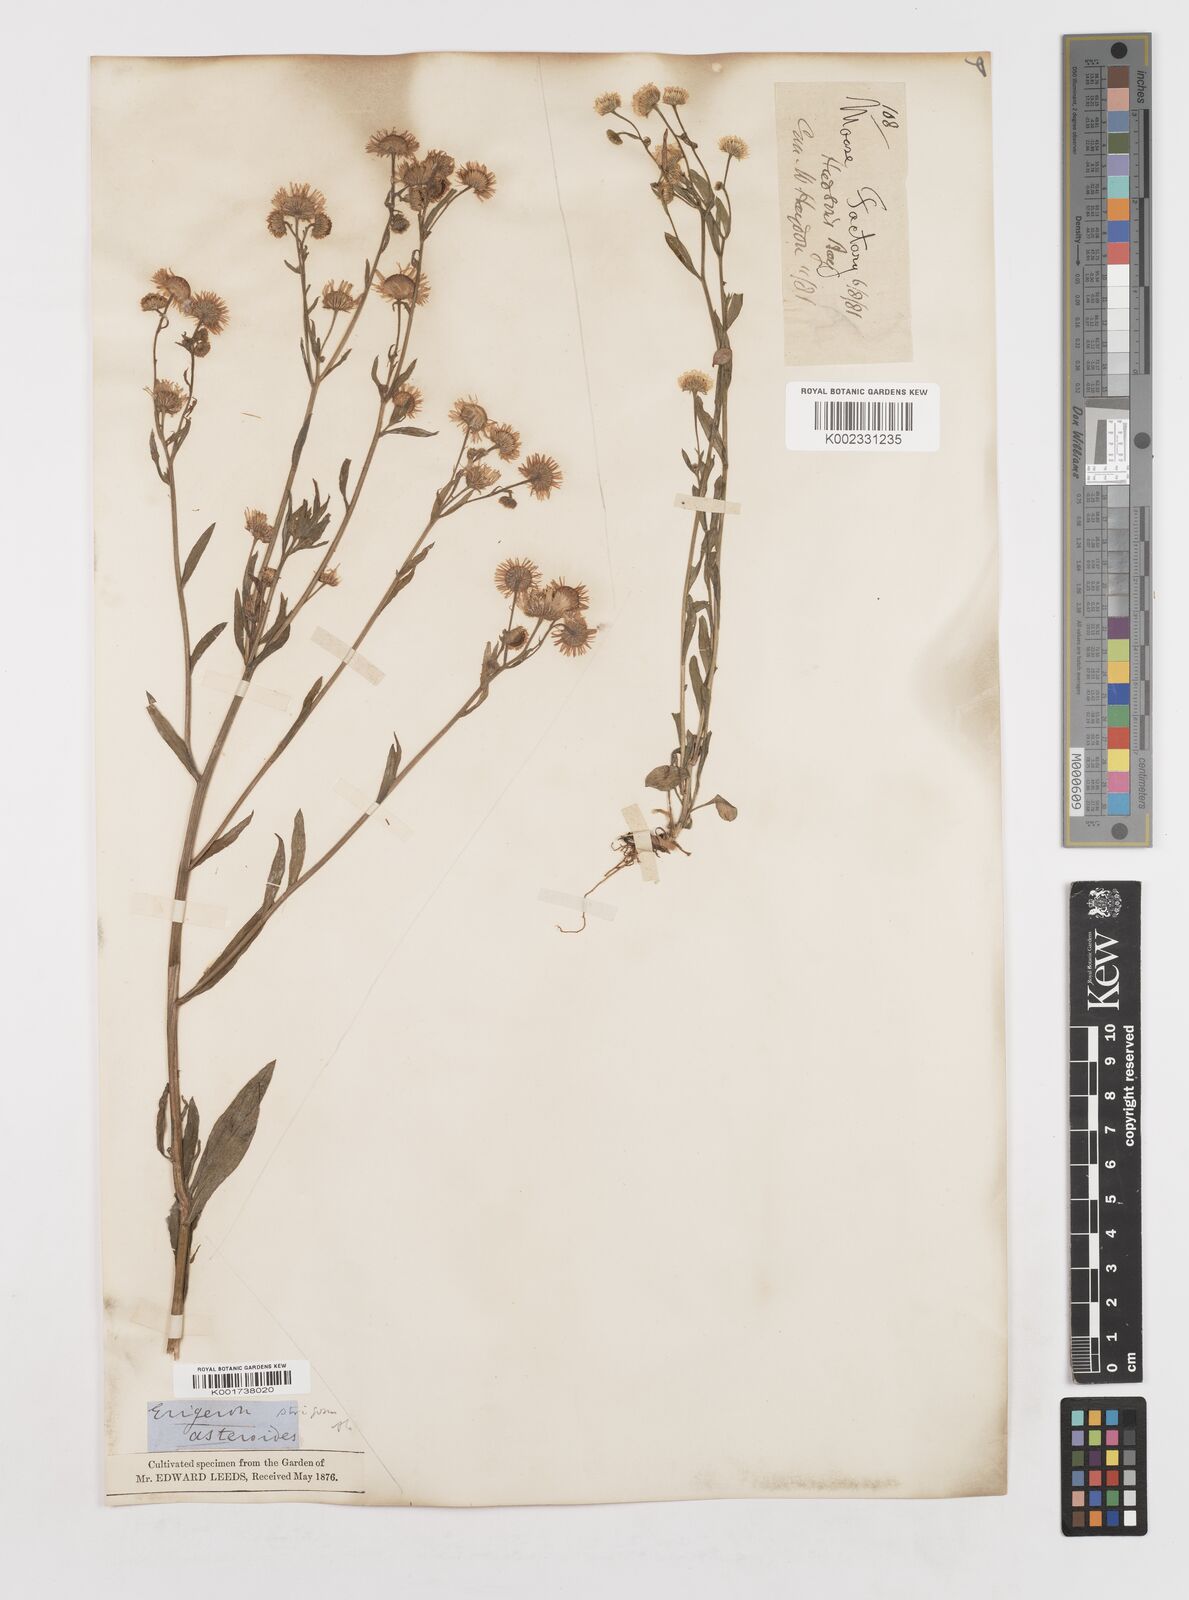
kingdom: Plantae
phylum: Tracheophyta
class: Magnoliopsida
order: Asterales
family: Asteraceae
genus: Erigeron
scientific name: Erigeron strigosus
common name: Common eastern fleabane
